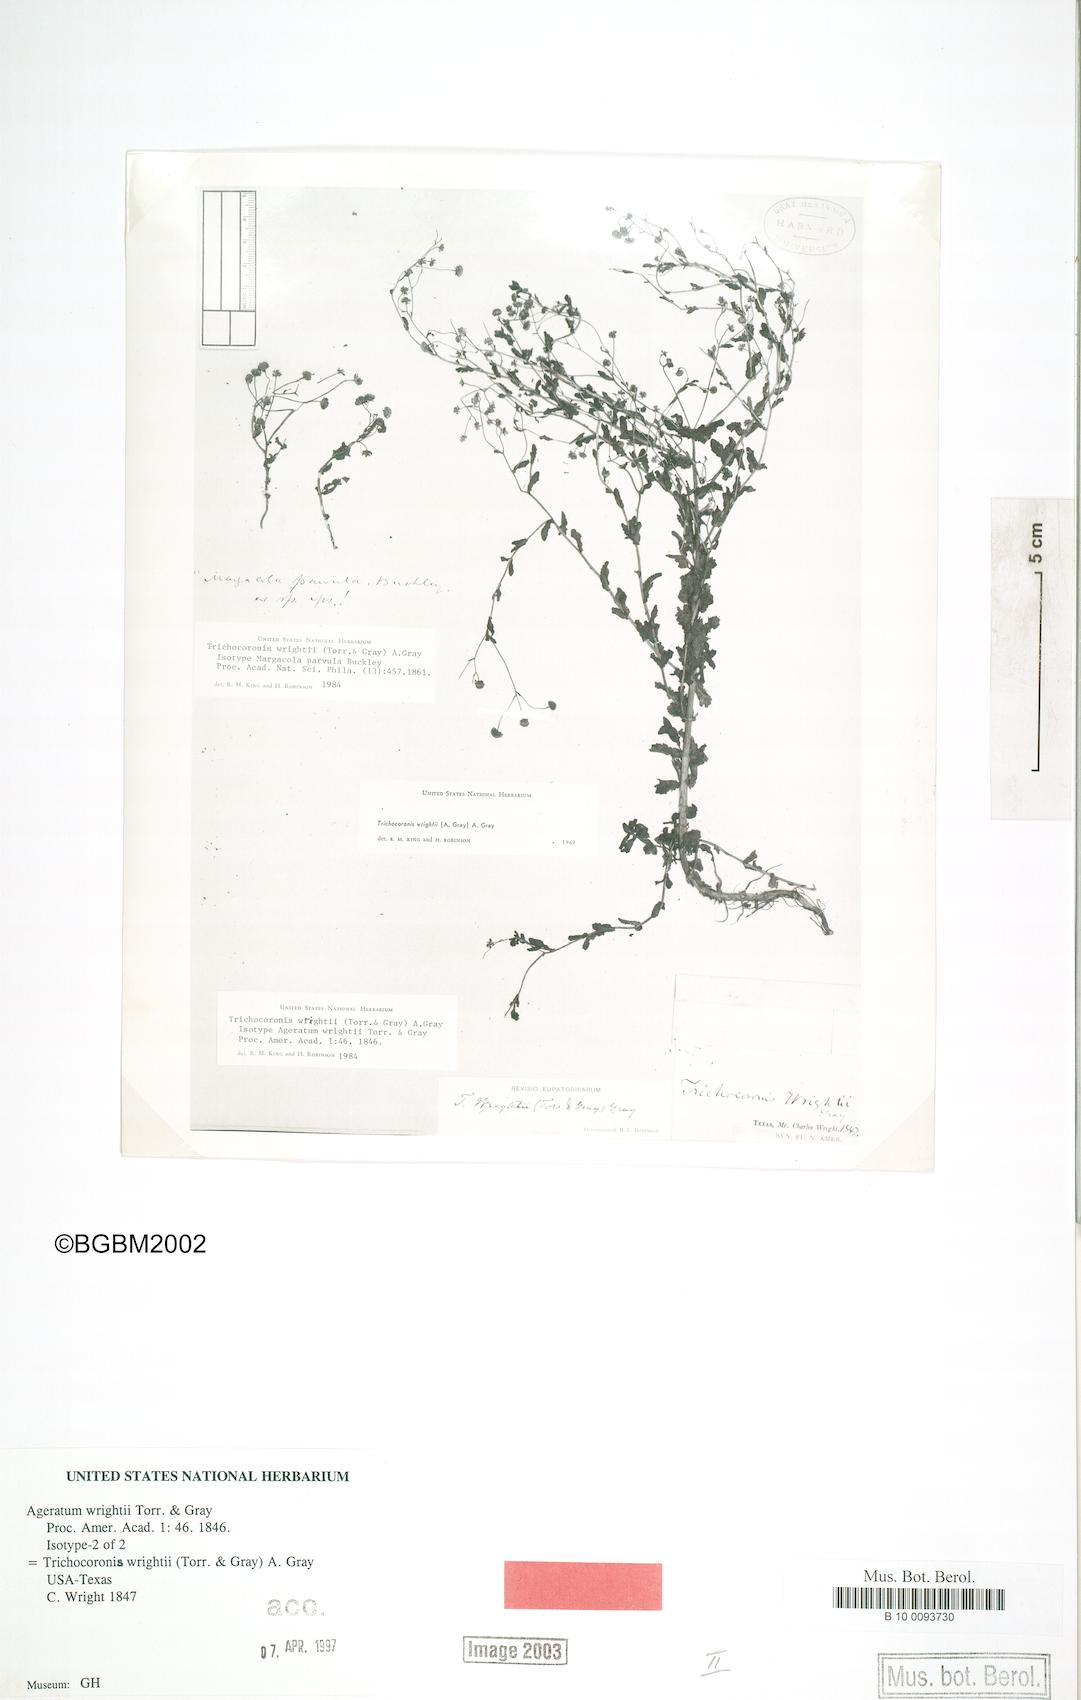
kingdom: Plantae
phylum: Tracheophyta
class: Magnoliopsida
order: Asterales
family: Asteraceae
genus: Trichocoronis
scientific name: Trichocoronis wrightii
